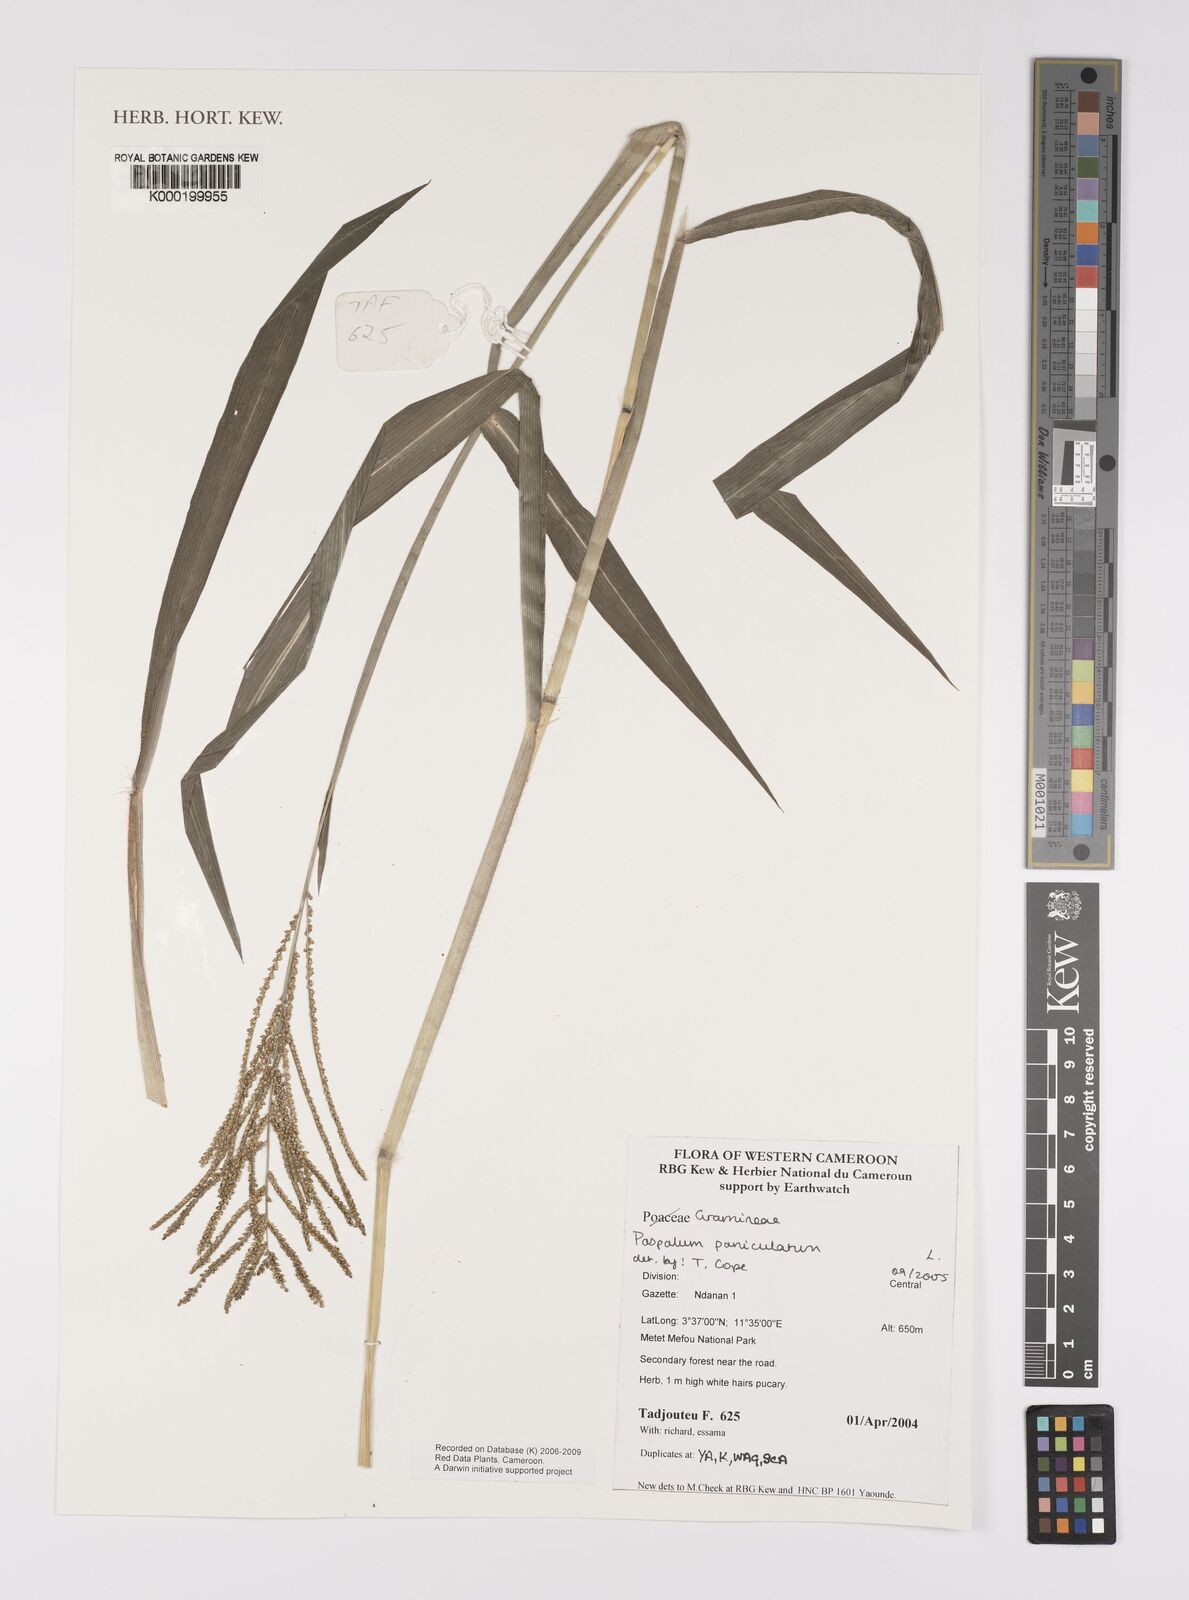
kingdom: Plantae
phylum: Tracheophyta
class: Liliopsida
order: Poales
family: Poaceae
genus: Paspalum
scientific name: Paspalum paniculatum
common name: Arrocillo
